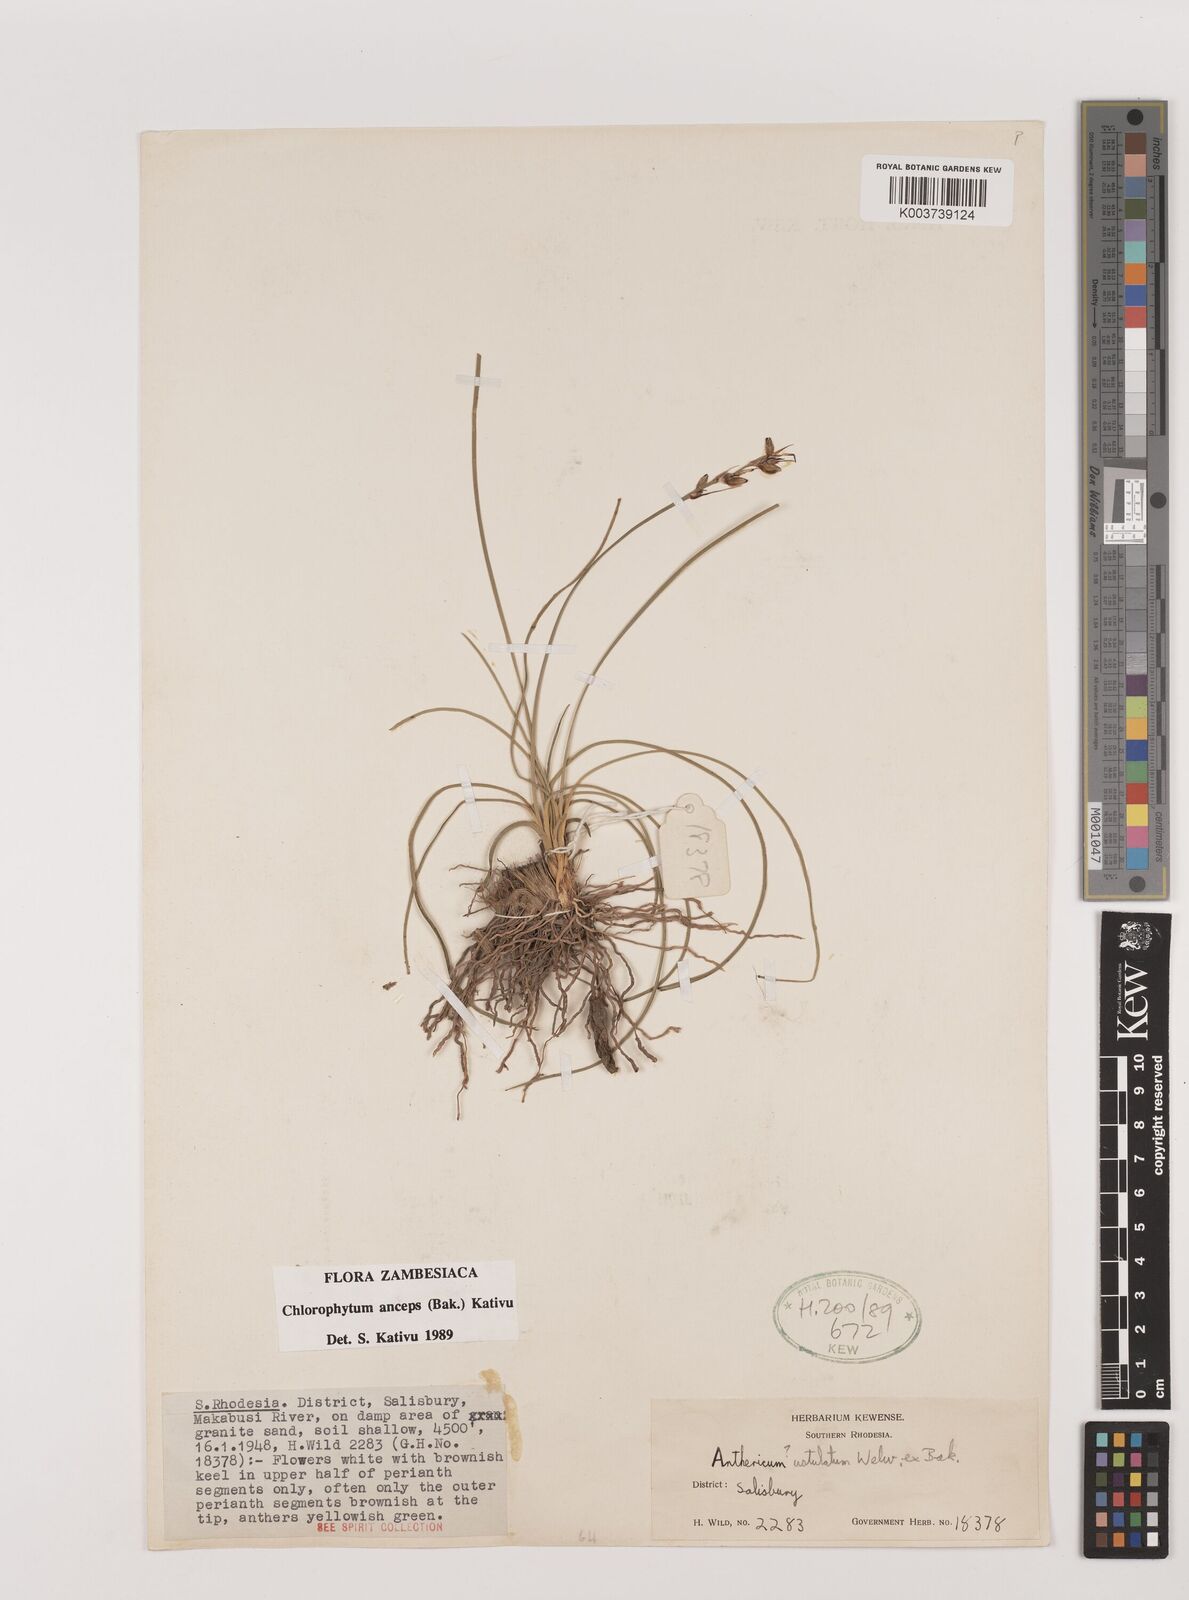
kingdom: Plantae
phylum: Tracheophyta
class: Liliopsida
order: Asparagales
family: Asparagaceae
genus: Chlorophytum
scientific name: Chlorophytum anceps
